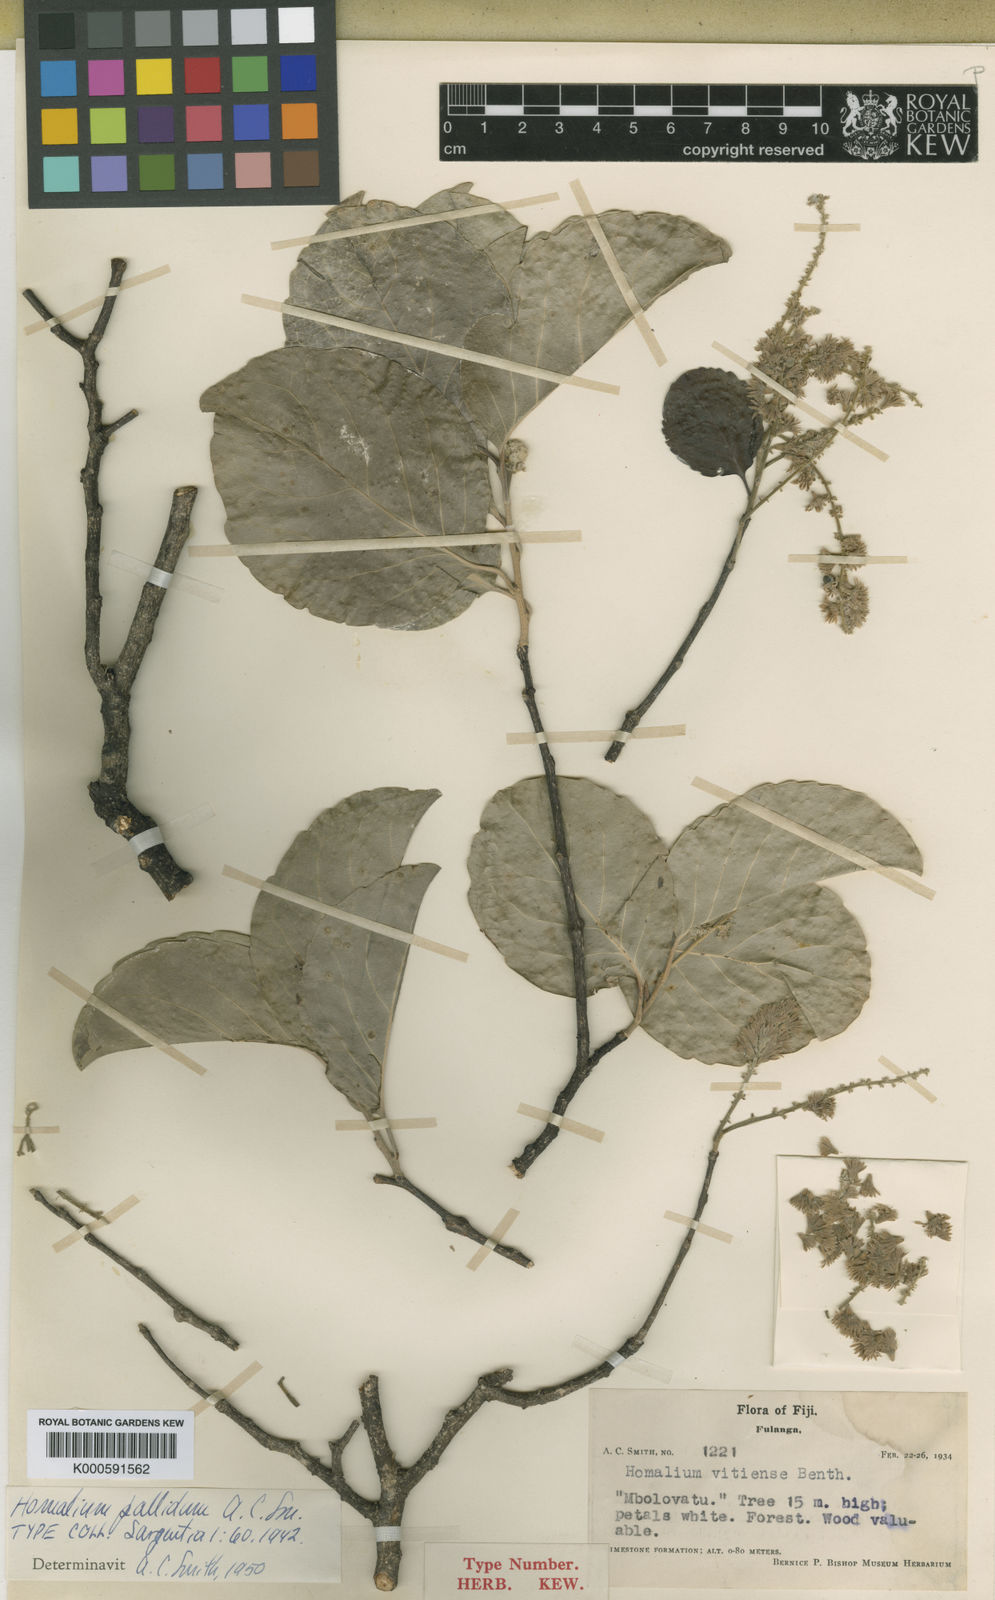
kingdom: Plantae
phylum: Tracheophyta
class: Magnoliopsida
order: Malpighiales
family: Salicaceae
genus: Homalium
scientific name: Homalium pallidum
